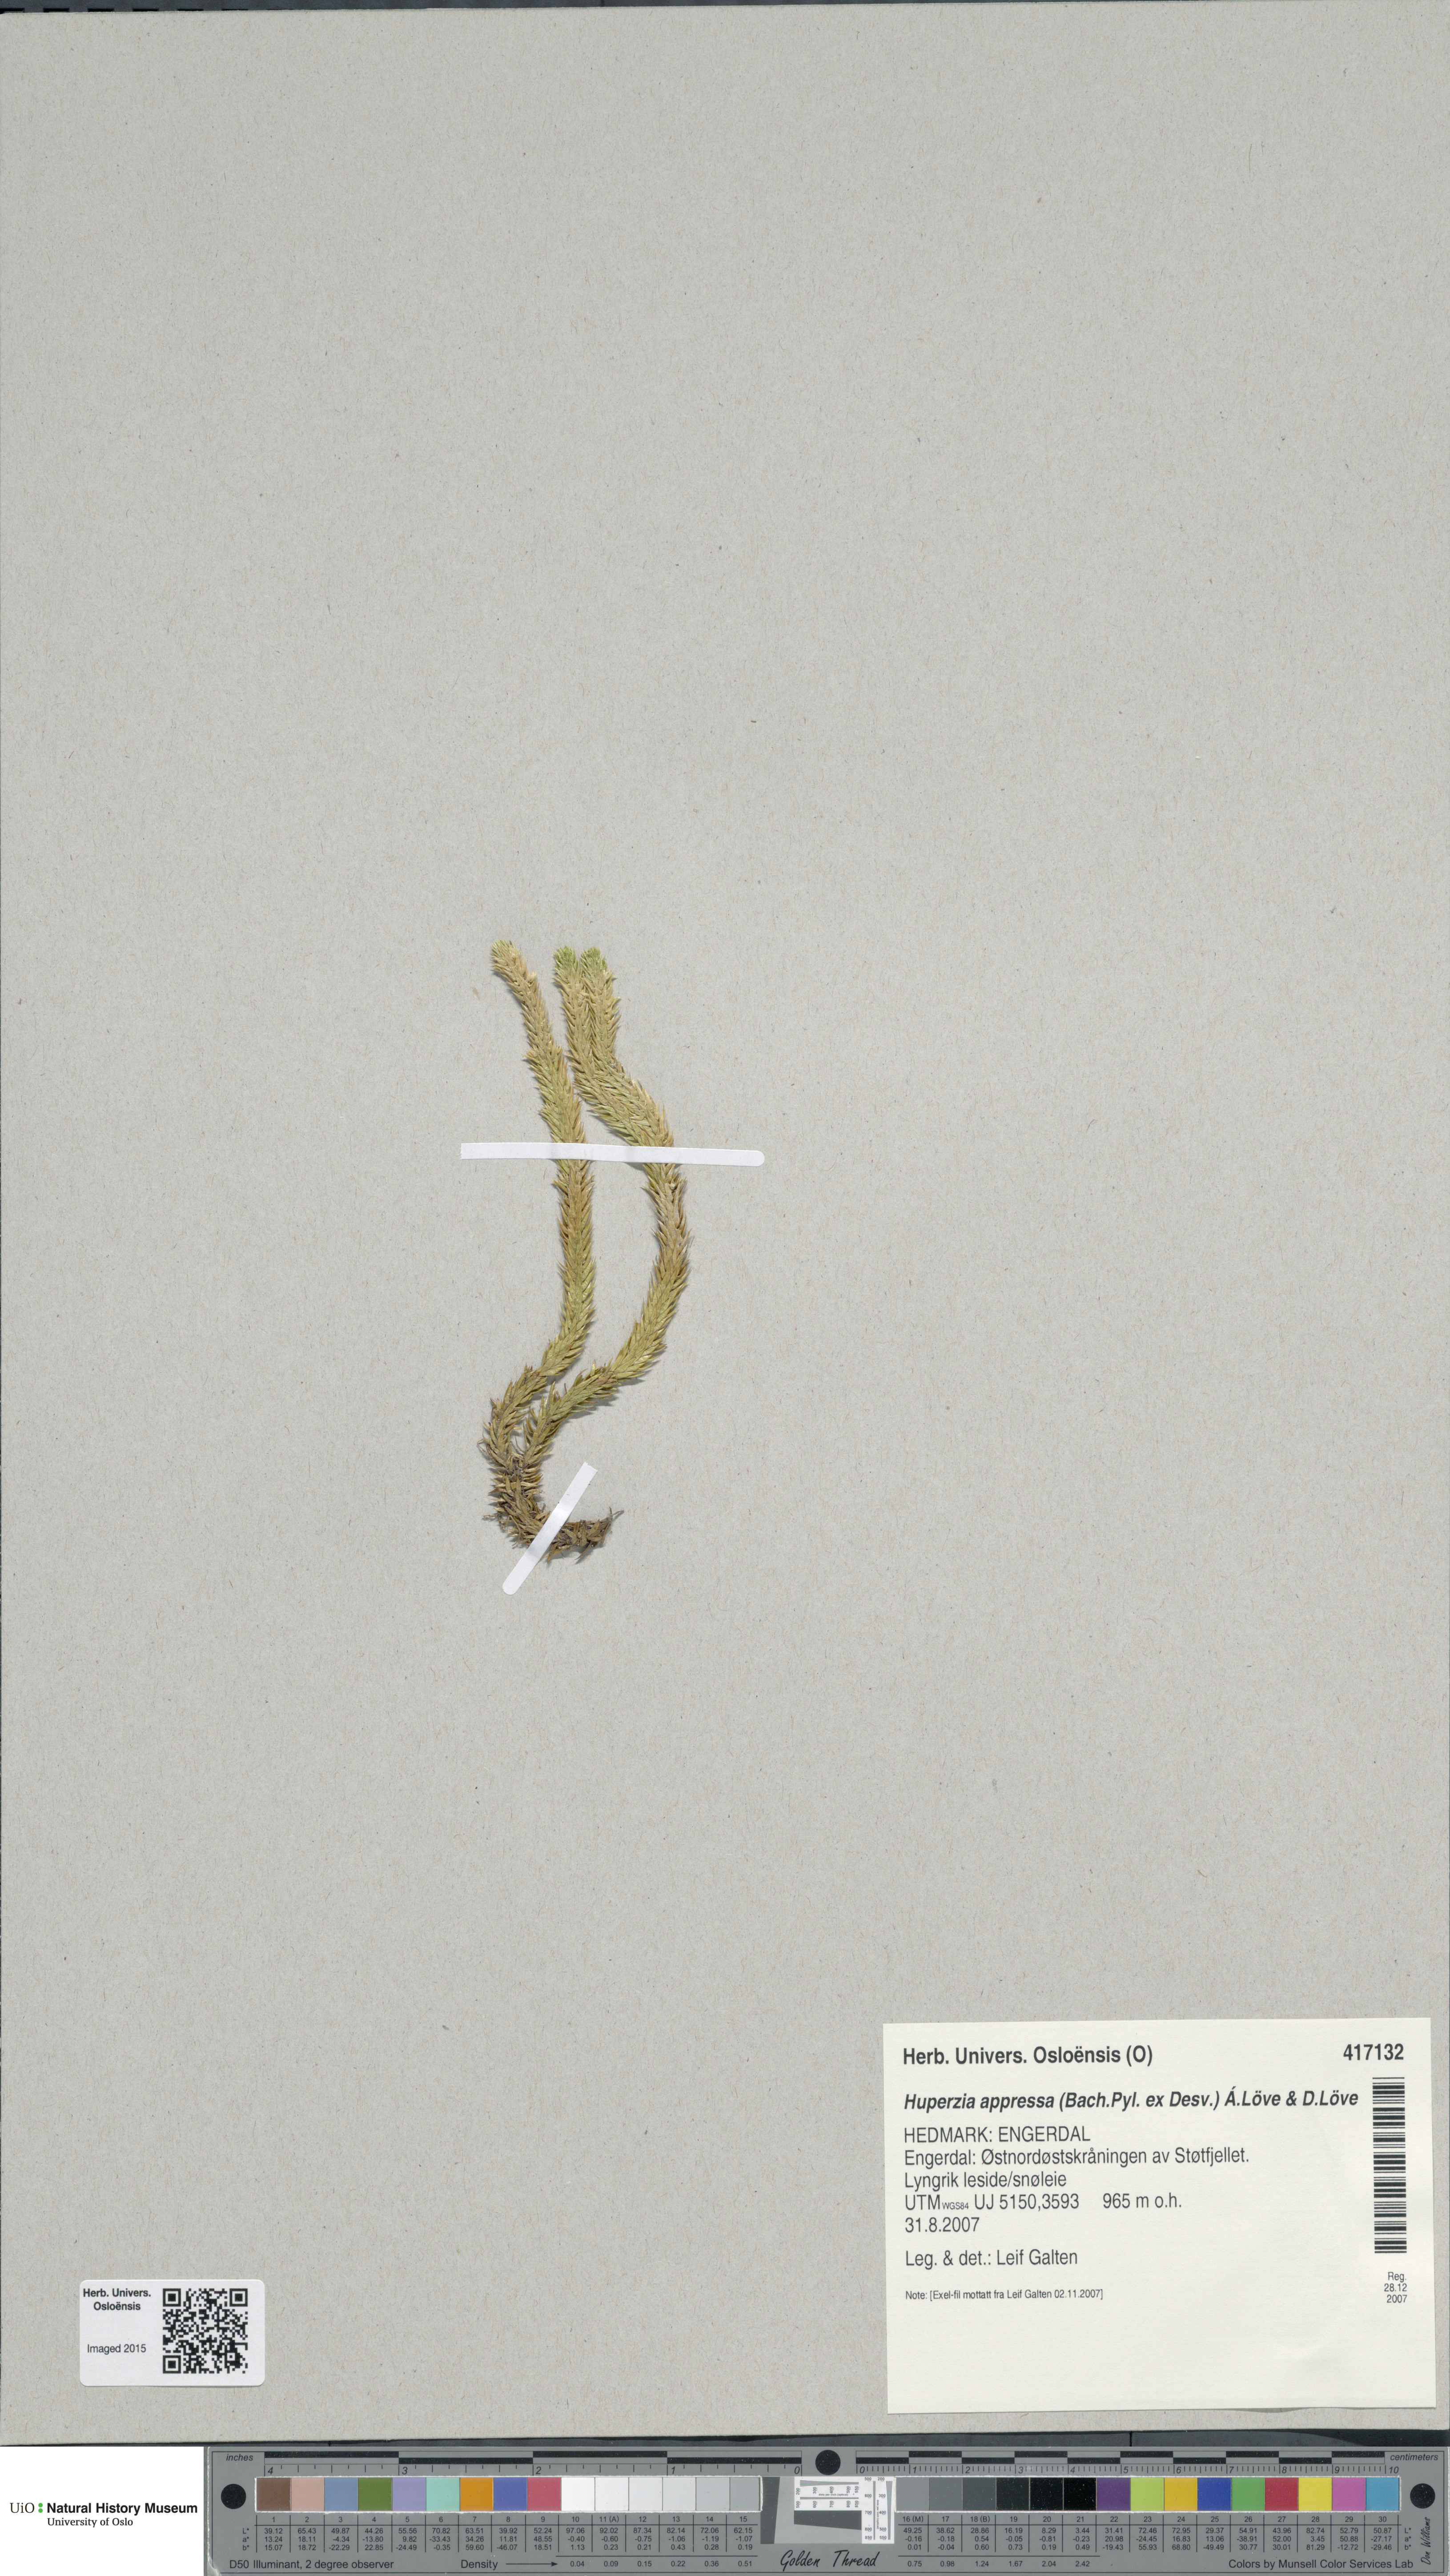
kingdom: Plantae
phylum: Tracheophyta
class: Lycopodiopsida
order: Lycopodiales
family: Lycopodiaceae
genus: Huperzia
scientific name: Huperzia selago
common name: Northern firmoss
